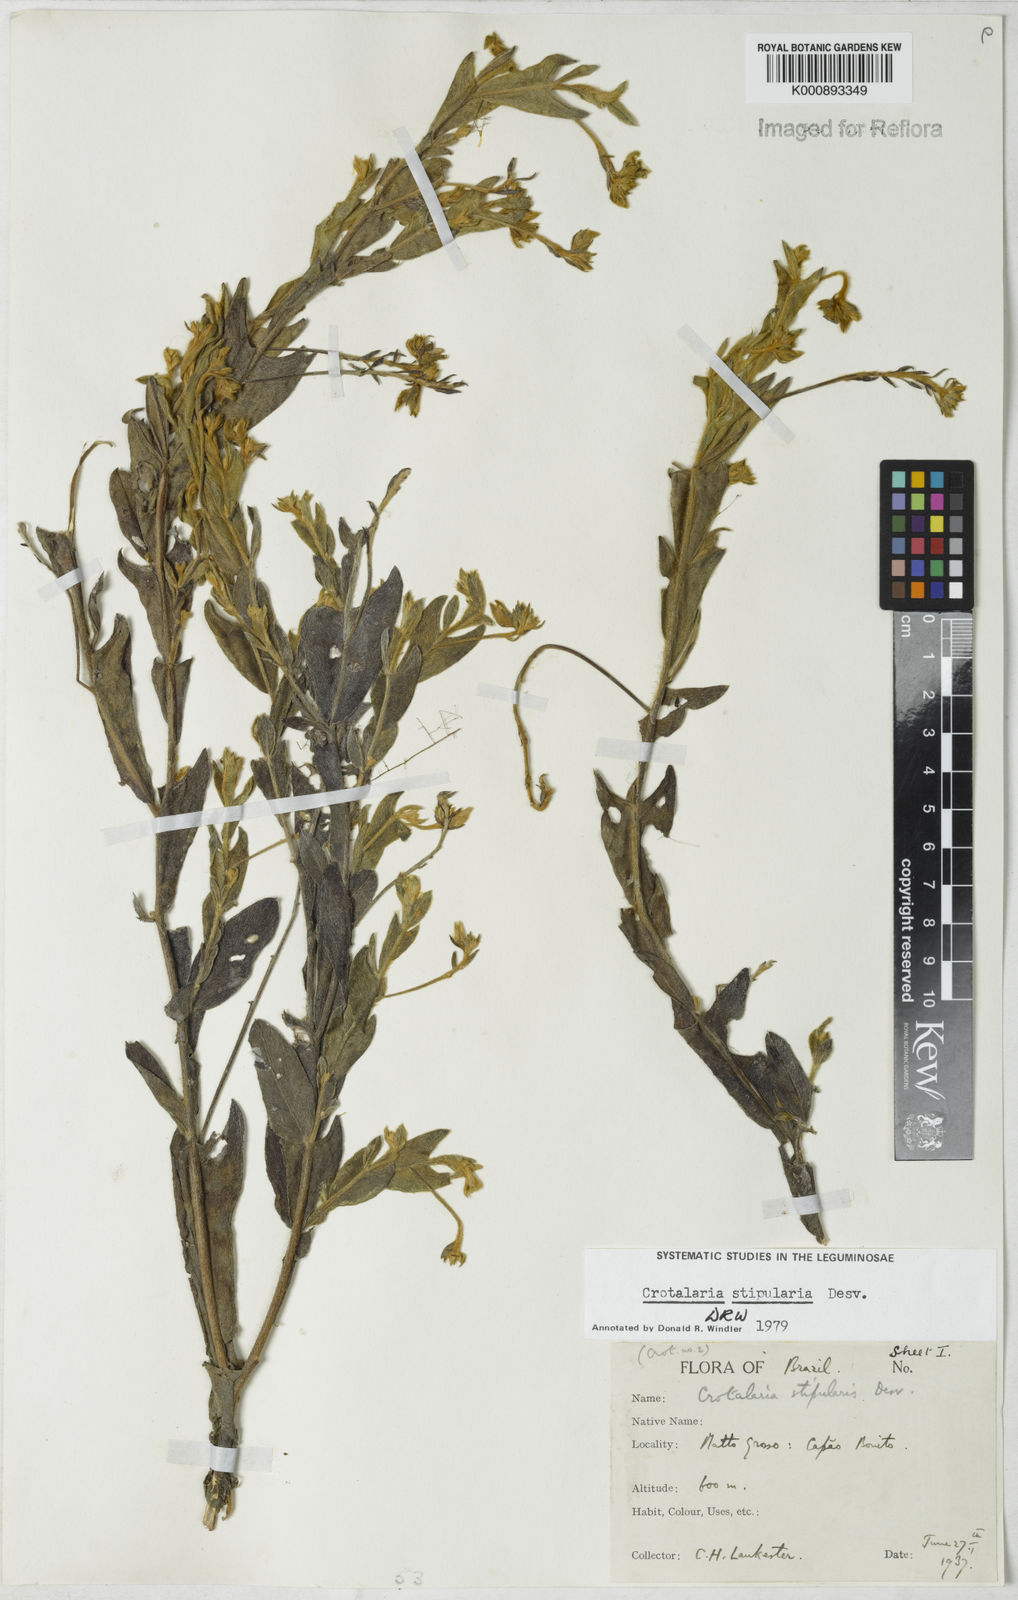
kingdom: Plantae
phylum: Tracheophyta
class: Magnoliopsida
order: Fabales
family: Fabaceae
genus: Crotalaria
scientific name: Crotalaria stipularia
